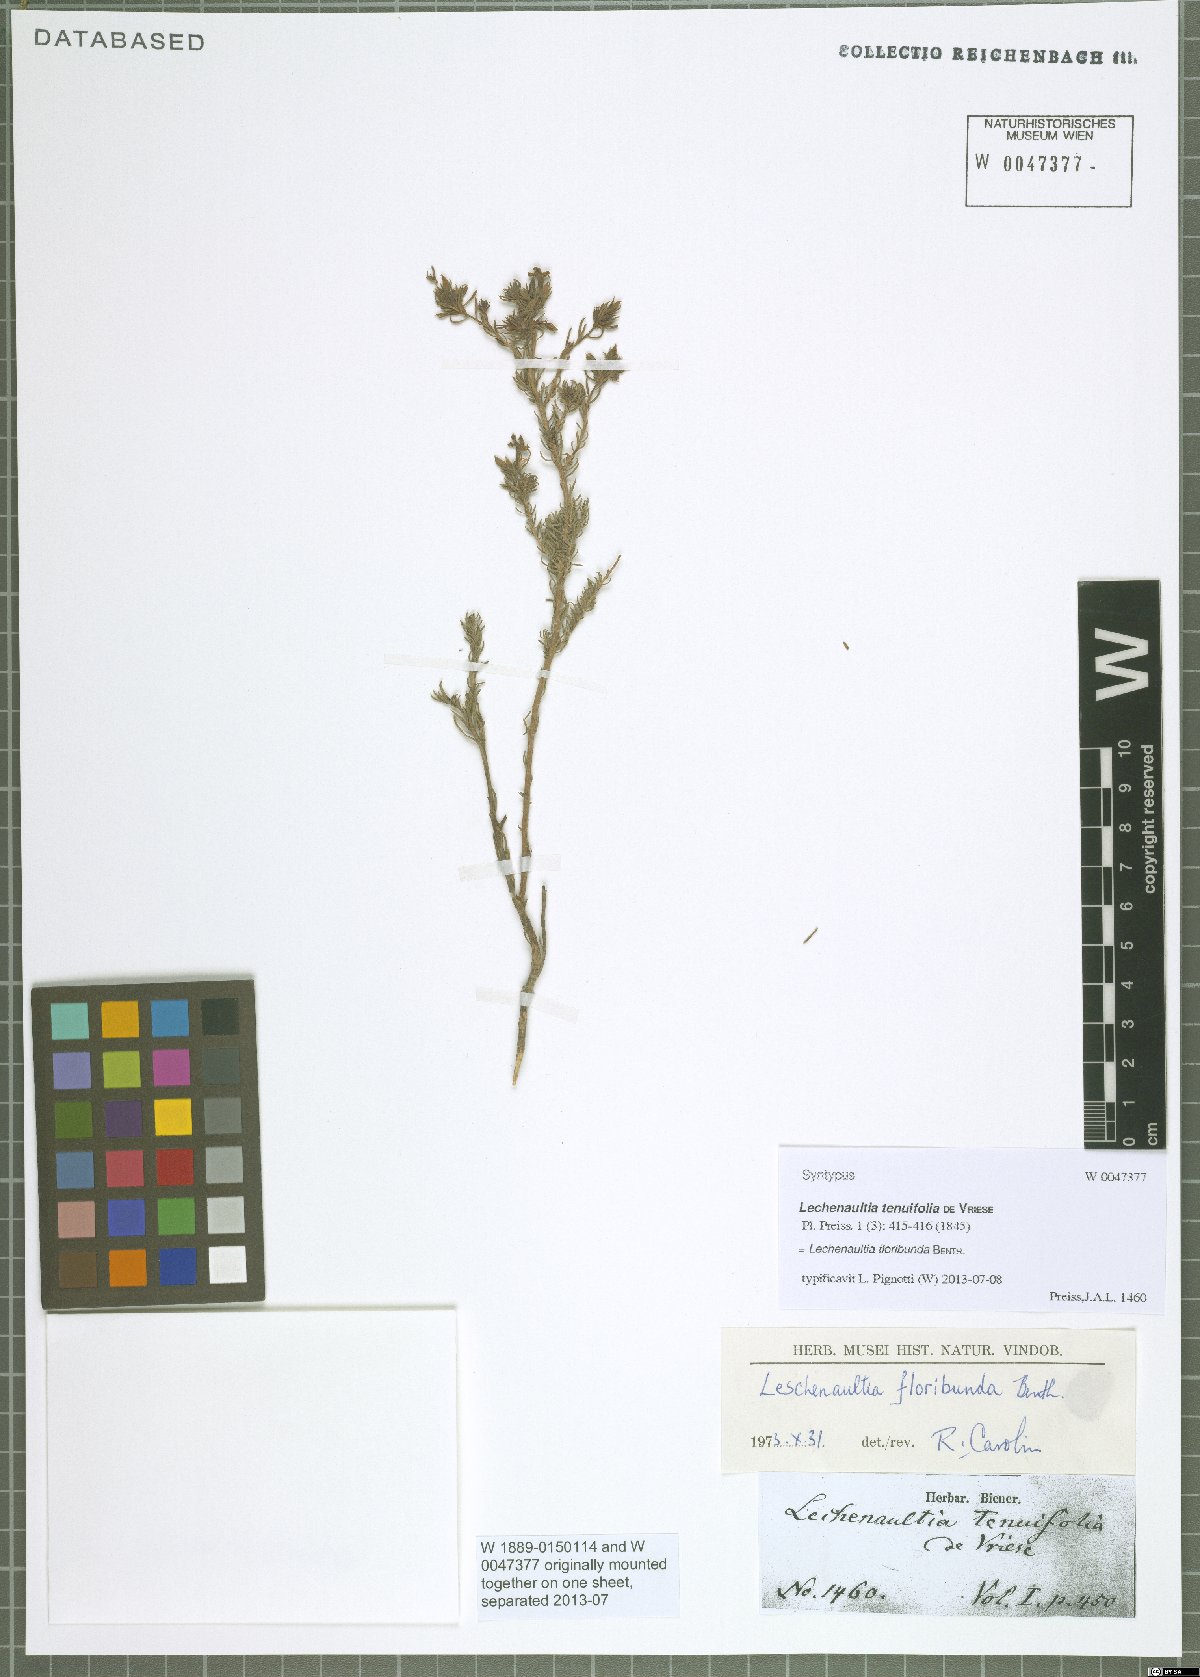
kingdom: Plantae
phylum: Tracheophyta
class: Magnoliopsida
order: Asterales
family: Goodeniaceae
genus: Lechenaultia
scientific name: Lechenaultia floribunda
